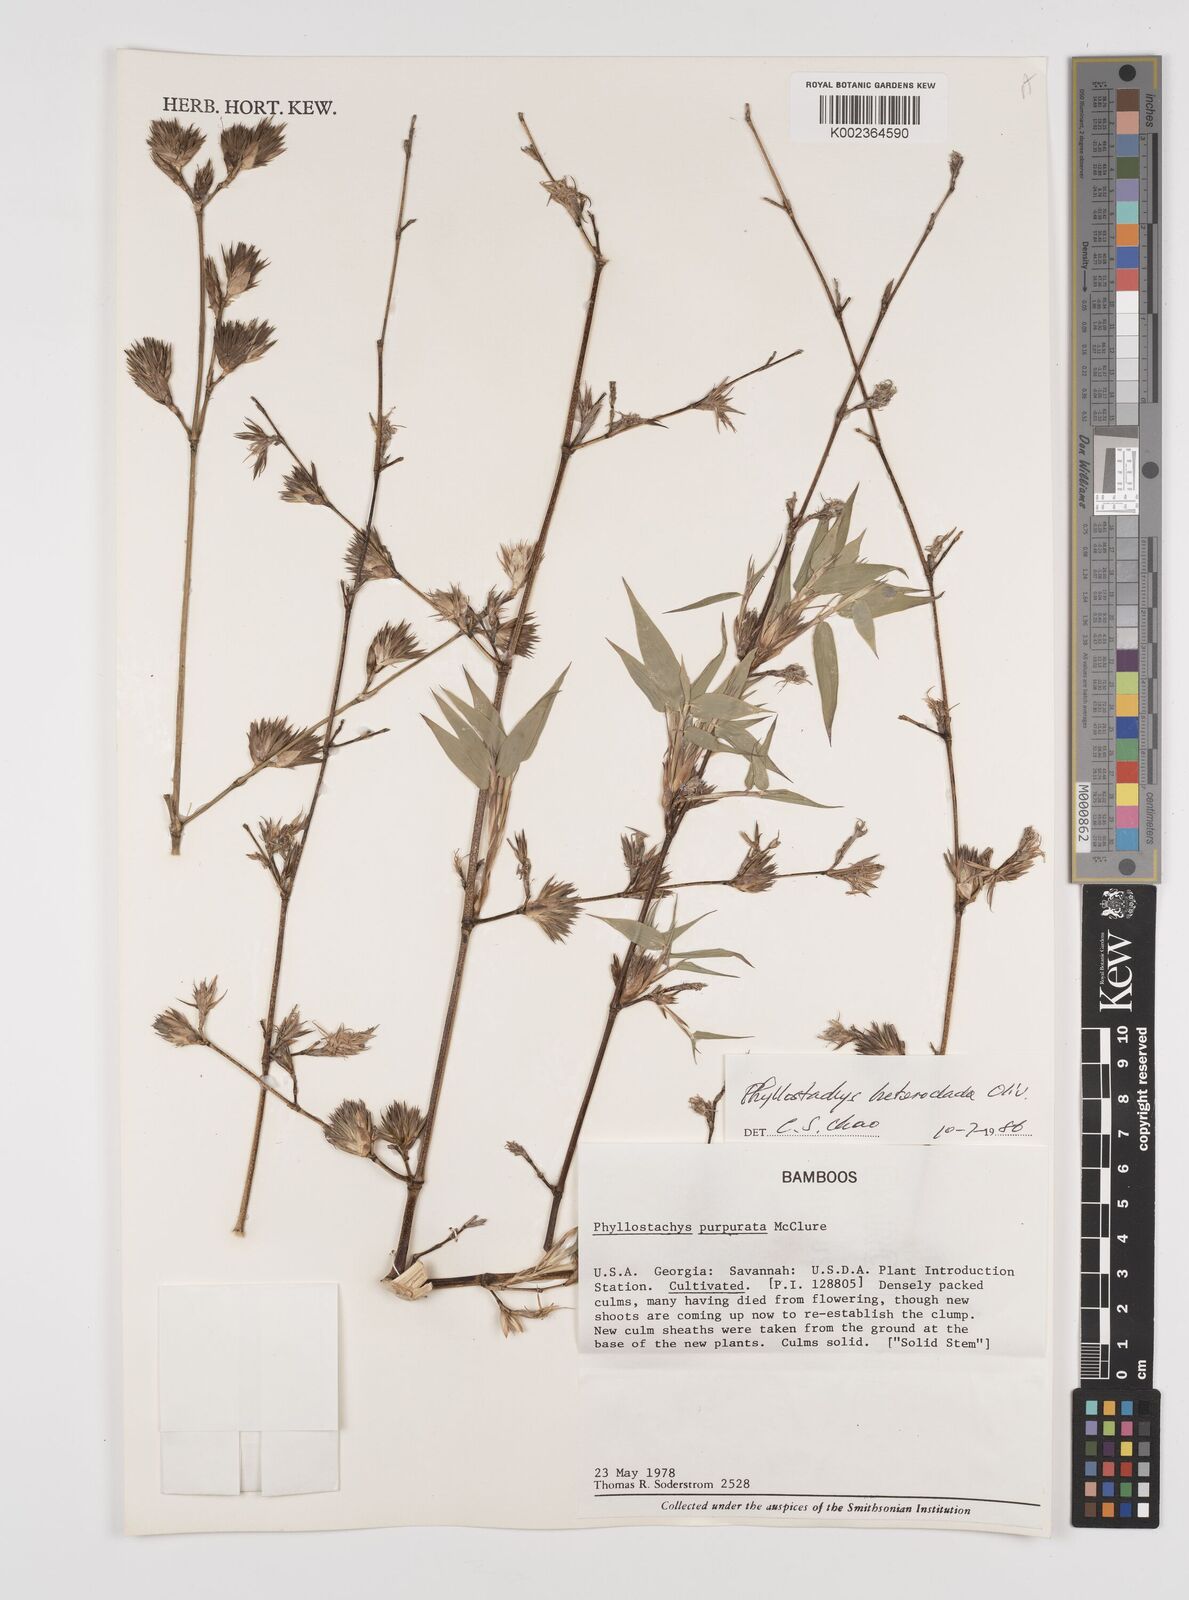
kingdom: Plantae
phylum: Tracheophyta
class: Liliopsida
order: Poales
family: Poaceae
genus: Phyllostachys
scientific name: Phyllostachys heteroclada
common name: Fishscale bamboo
